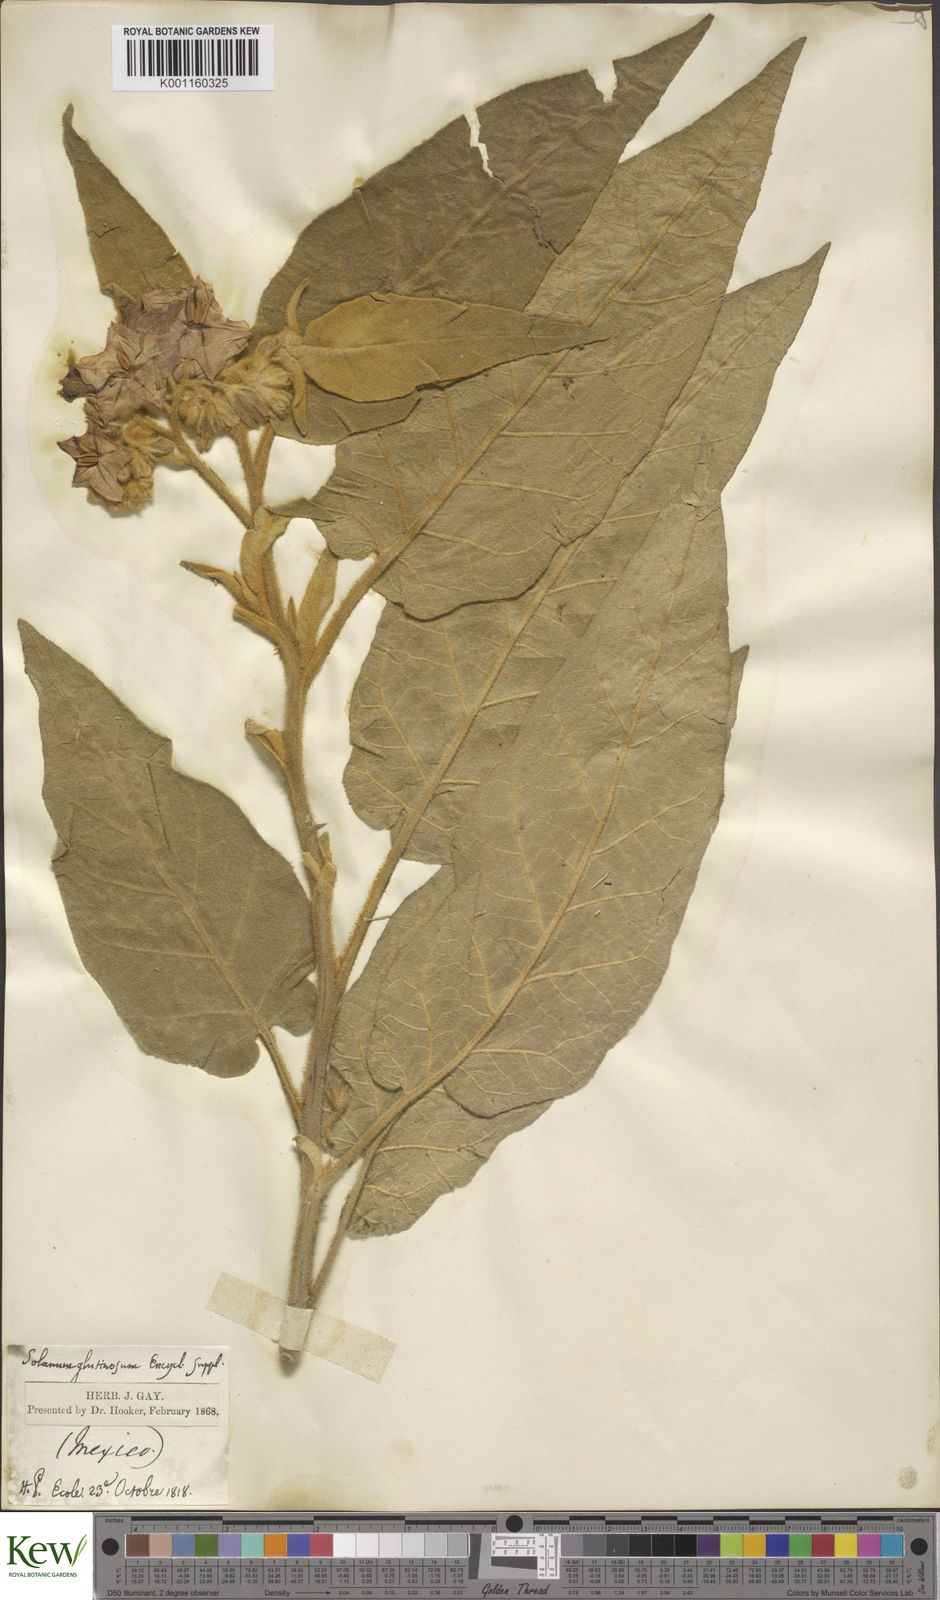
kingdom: Plantae
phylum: Tracheophyta
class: Magnoliopsida
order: Solanales
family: Solanaceae
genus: Solanum
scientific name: Solanum glutinosum
